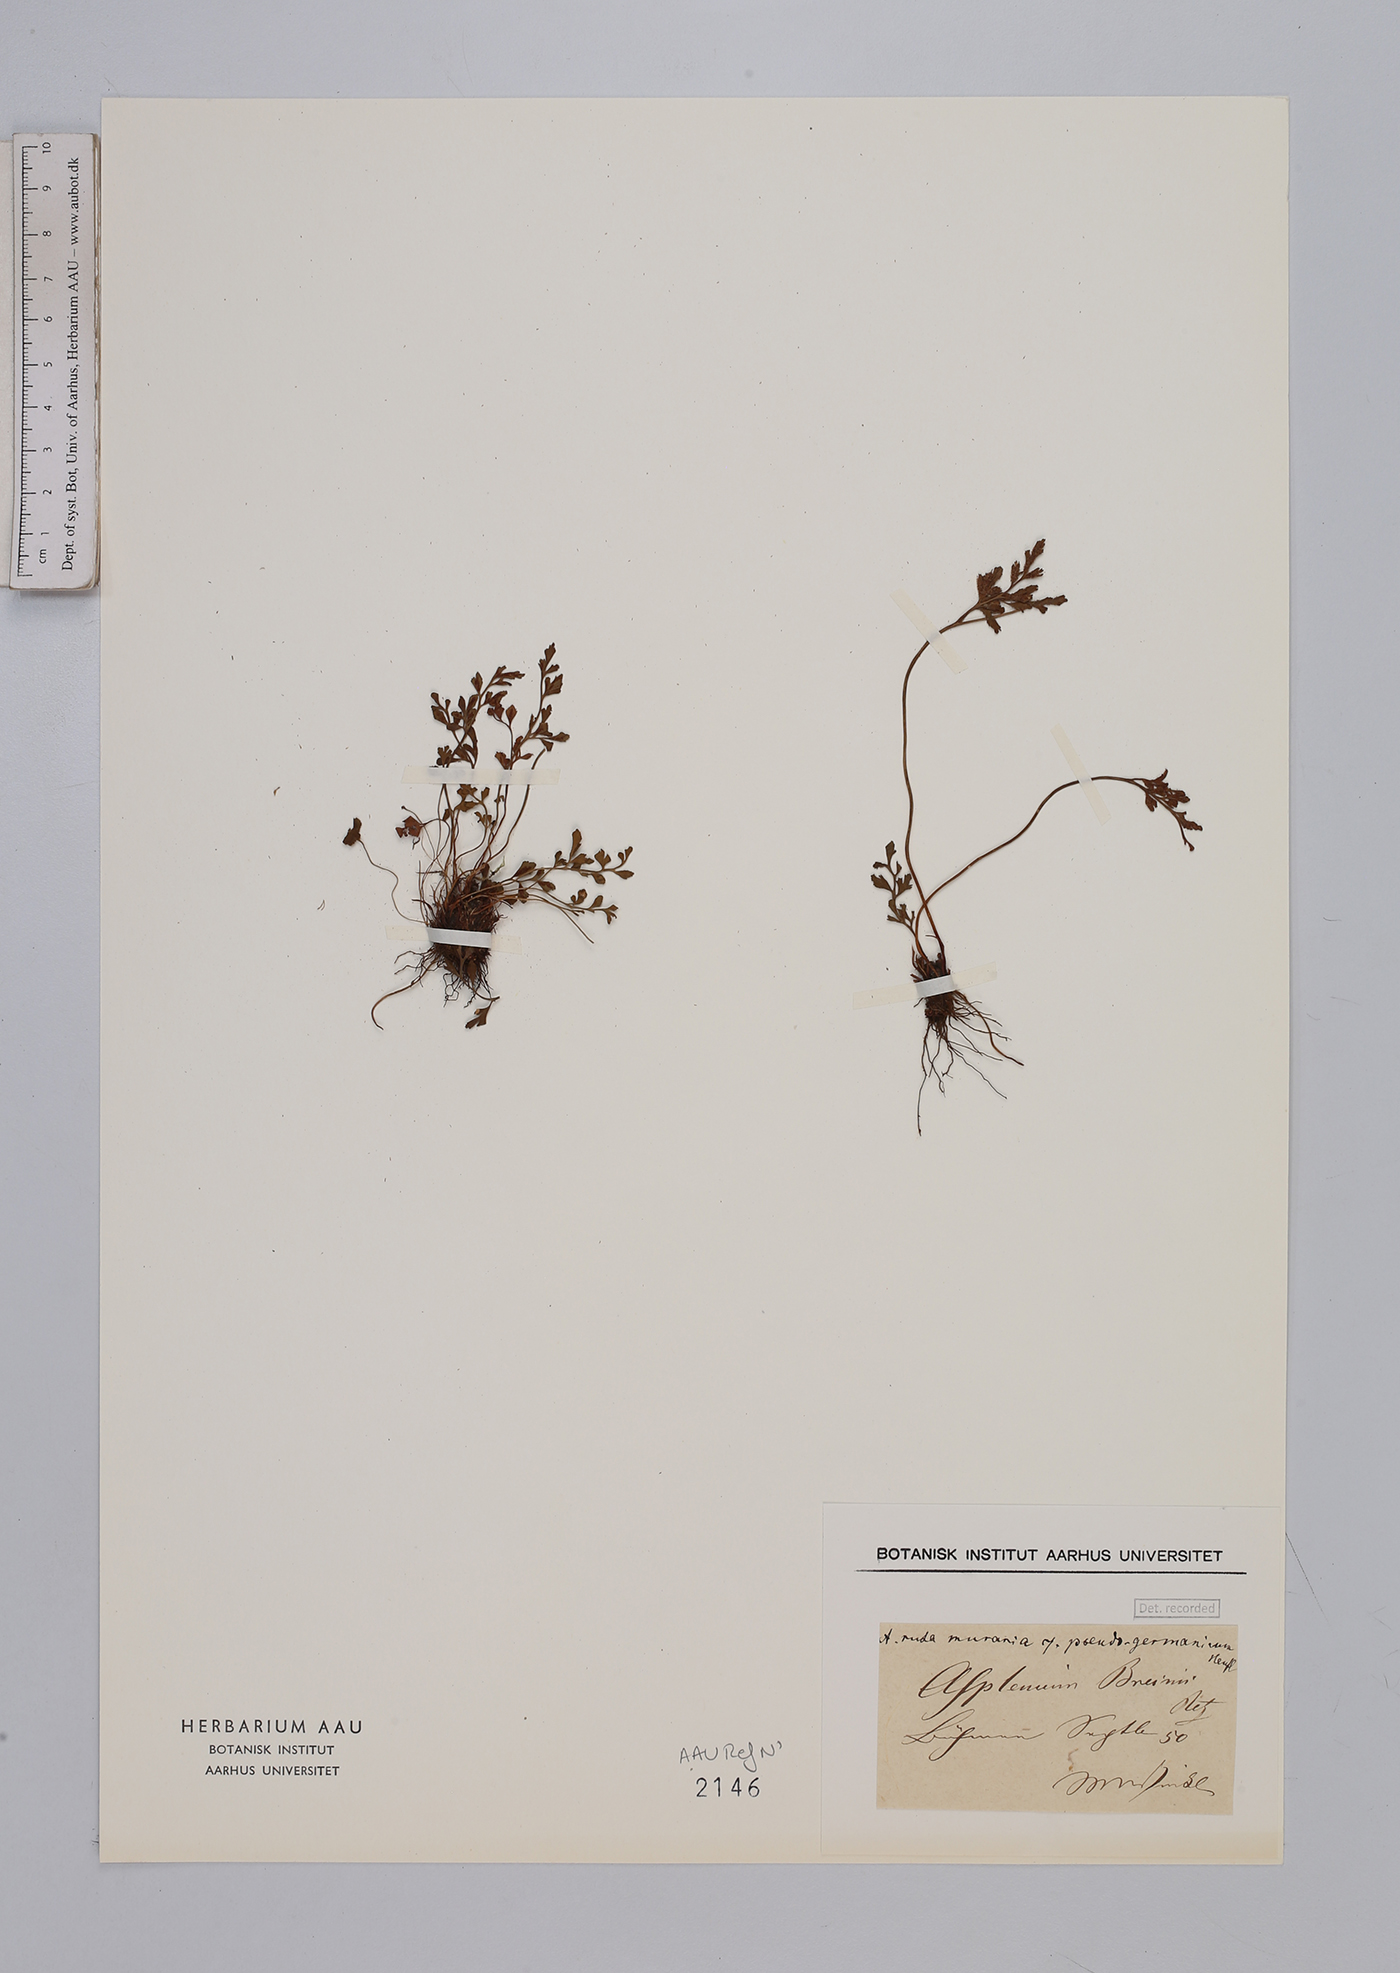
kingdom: Plantae
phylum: Tracheophyta
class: Polypodiopsida
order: Polypodiales
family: Aspleniaceae
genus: Asplenium
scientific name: Asplenium ruta-muraria
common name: Wall-rue
